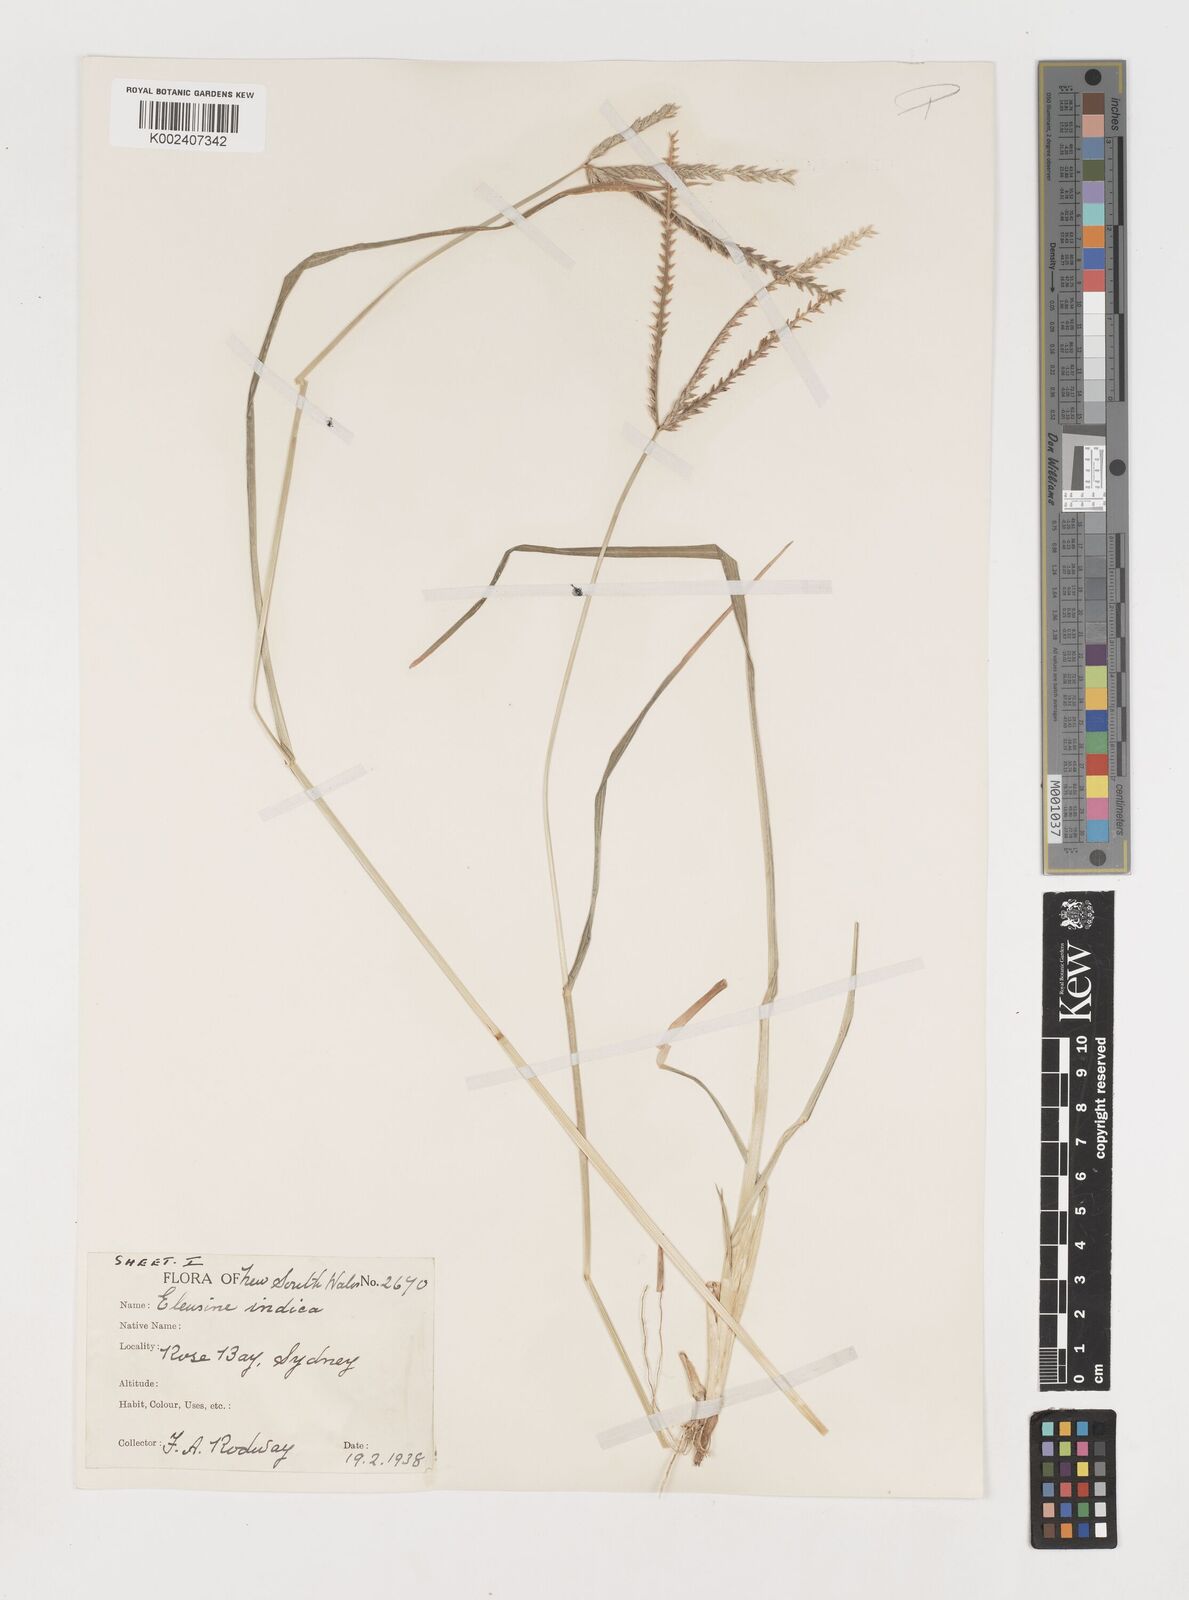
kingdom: Plantae
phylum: Tracheophyta
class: Liliopsida
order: Poales
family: Poaceae
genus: Eleusine
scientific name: Eleusine indica
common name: Yard-grass
